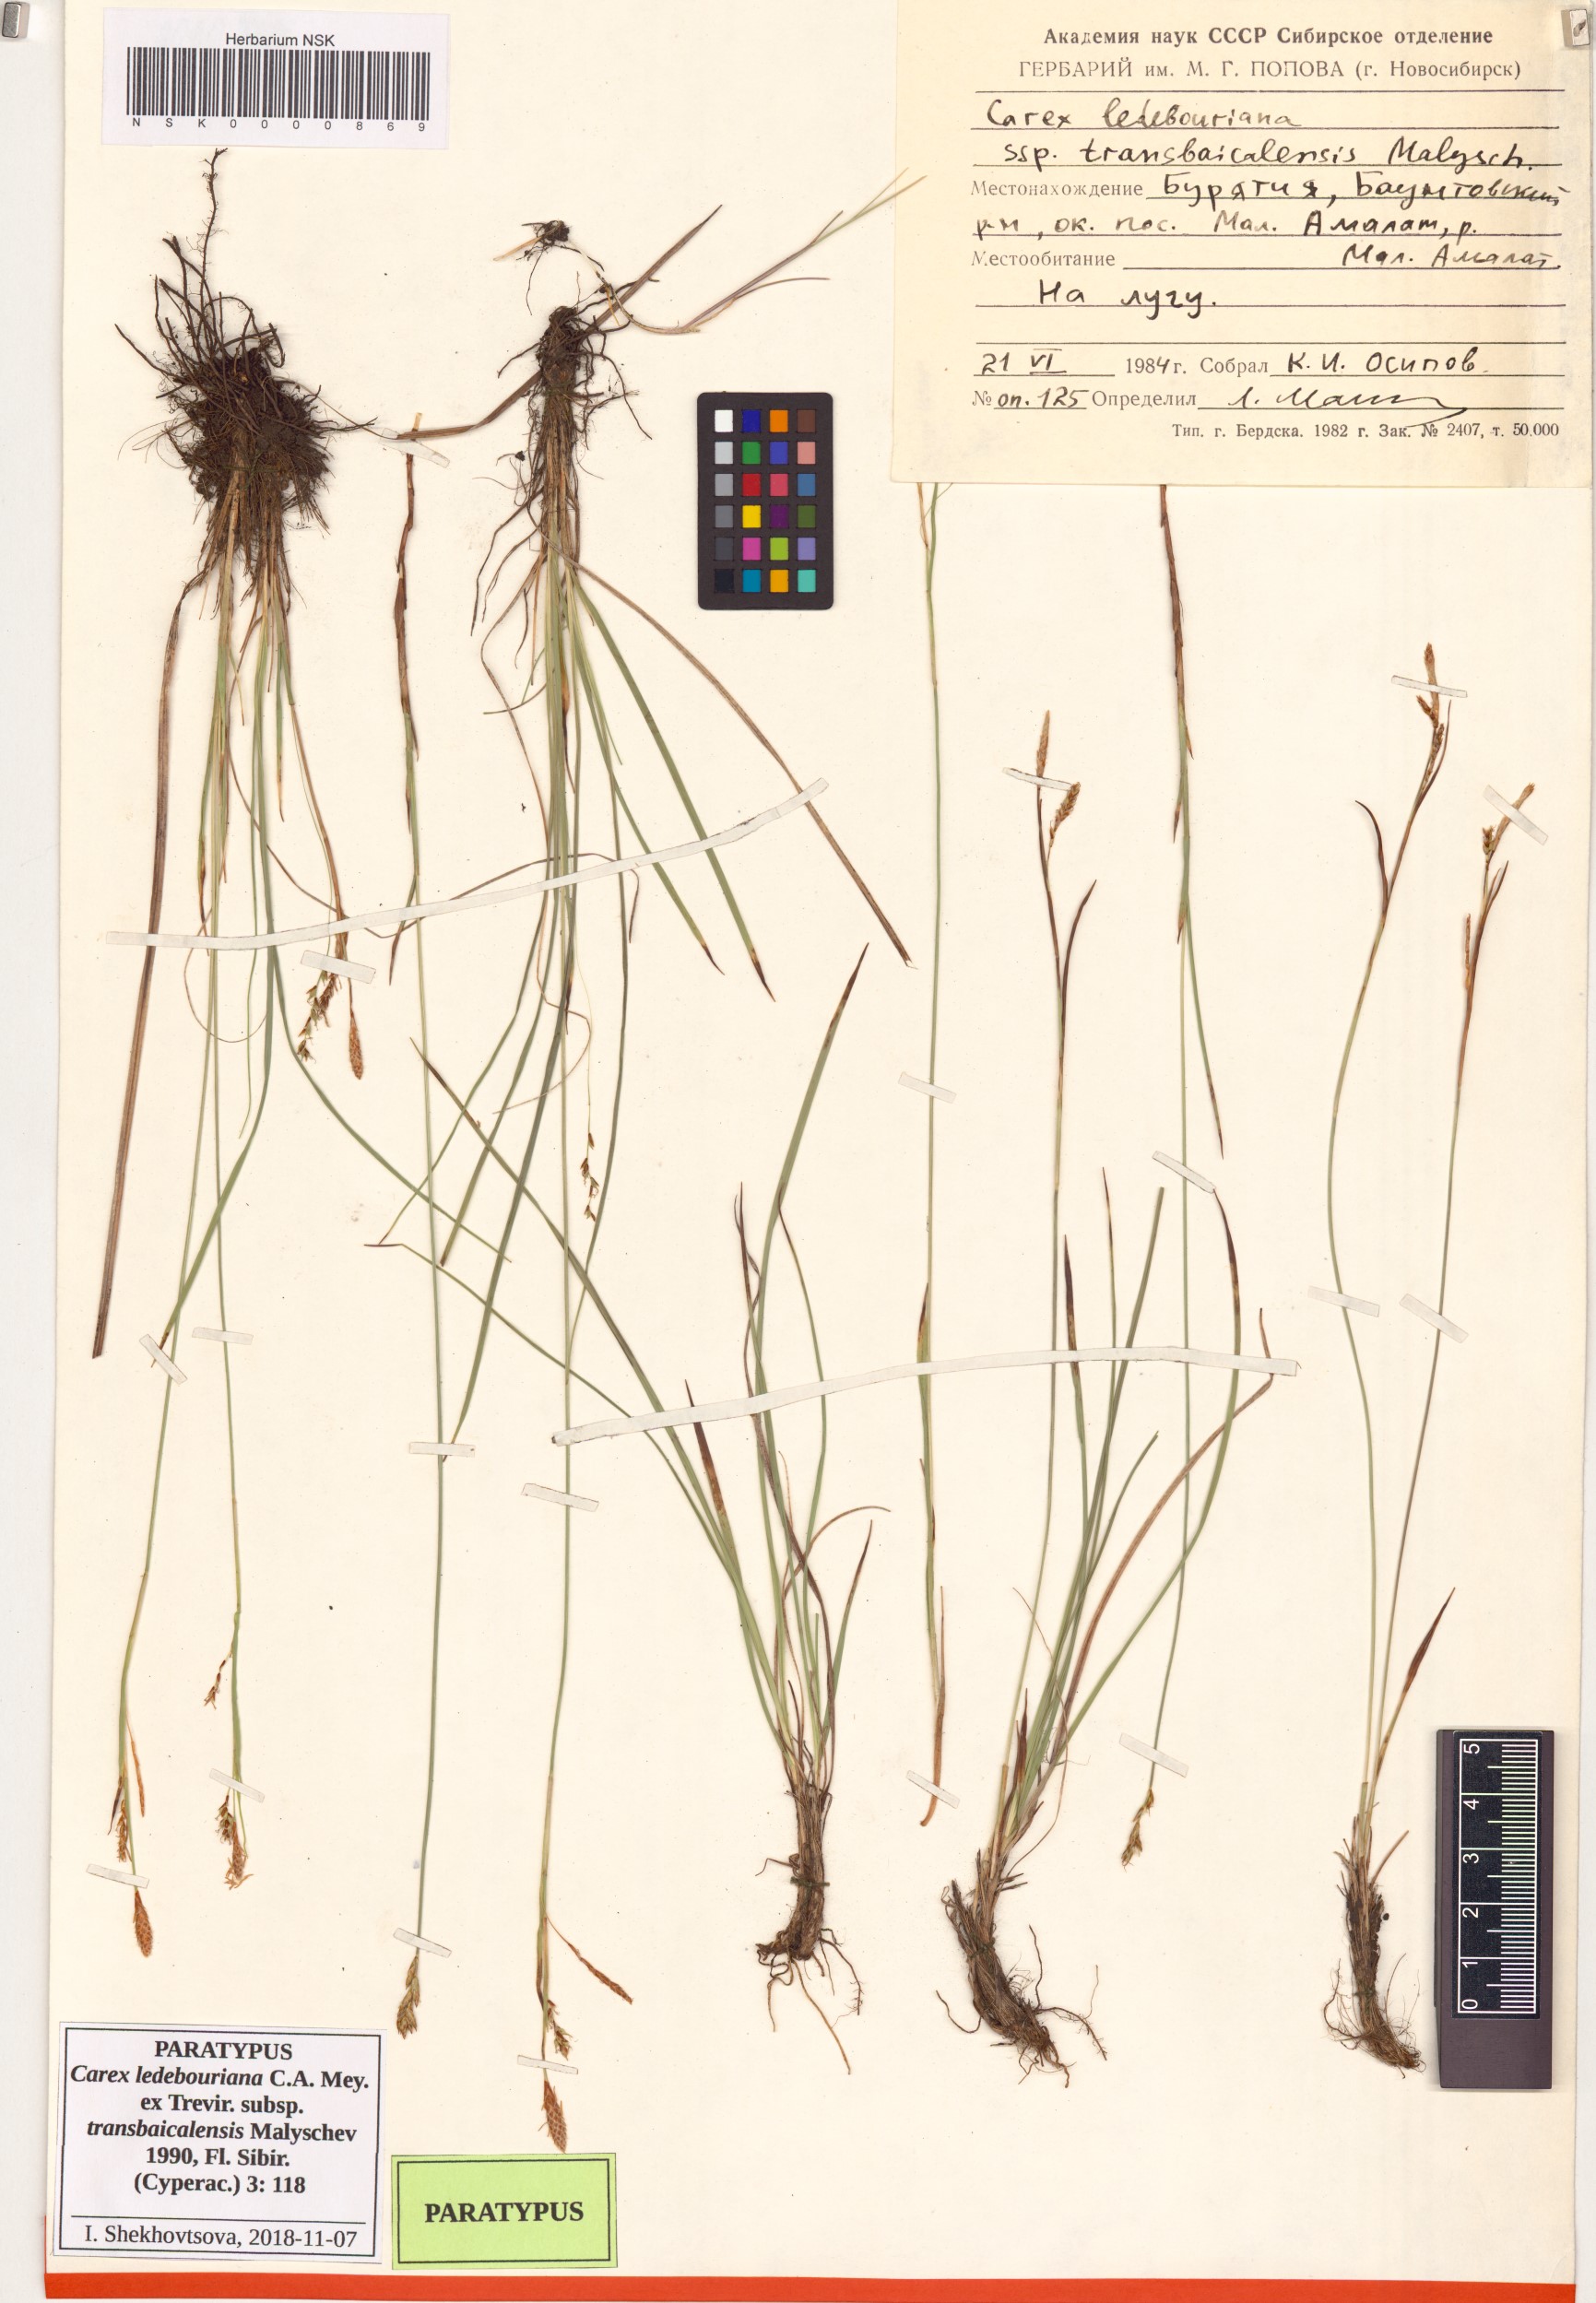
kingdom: Plantae
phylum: Tracheophyta
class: Liliopsida
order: Poales
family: Cyperaceae
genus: Carex
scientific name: Carex ledebouriana
